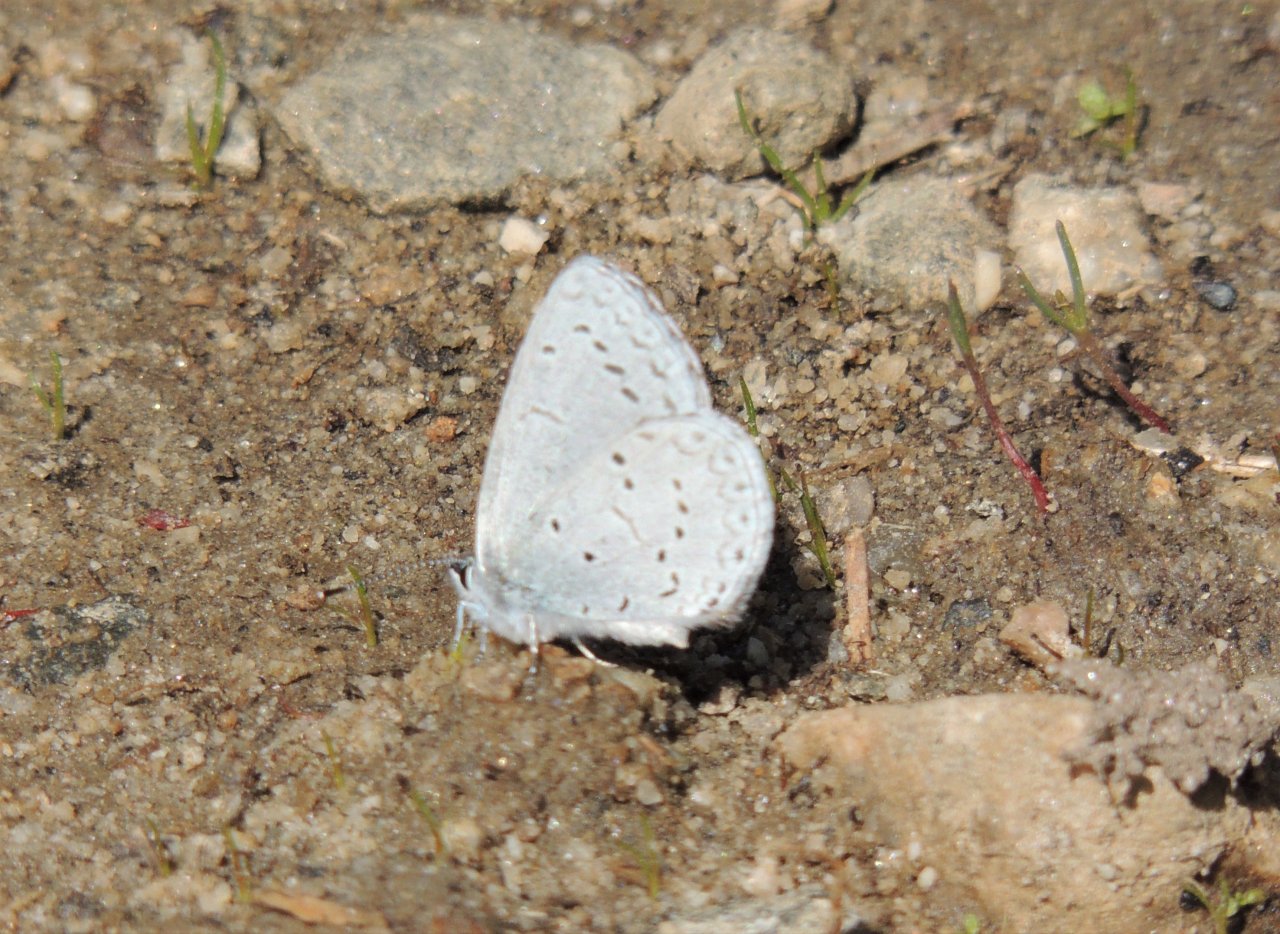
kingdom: Animalia
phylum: Arthropoda
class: Insecta
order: Lepidoptera
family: Lycaenidae
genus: Celastrina
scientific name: Celastrina ladon
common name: Echo Azure
